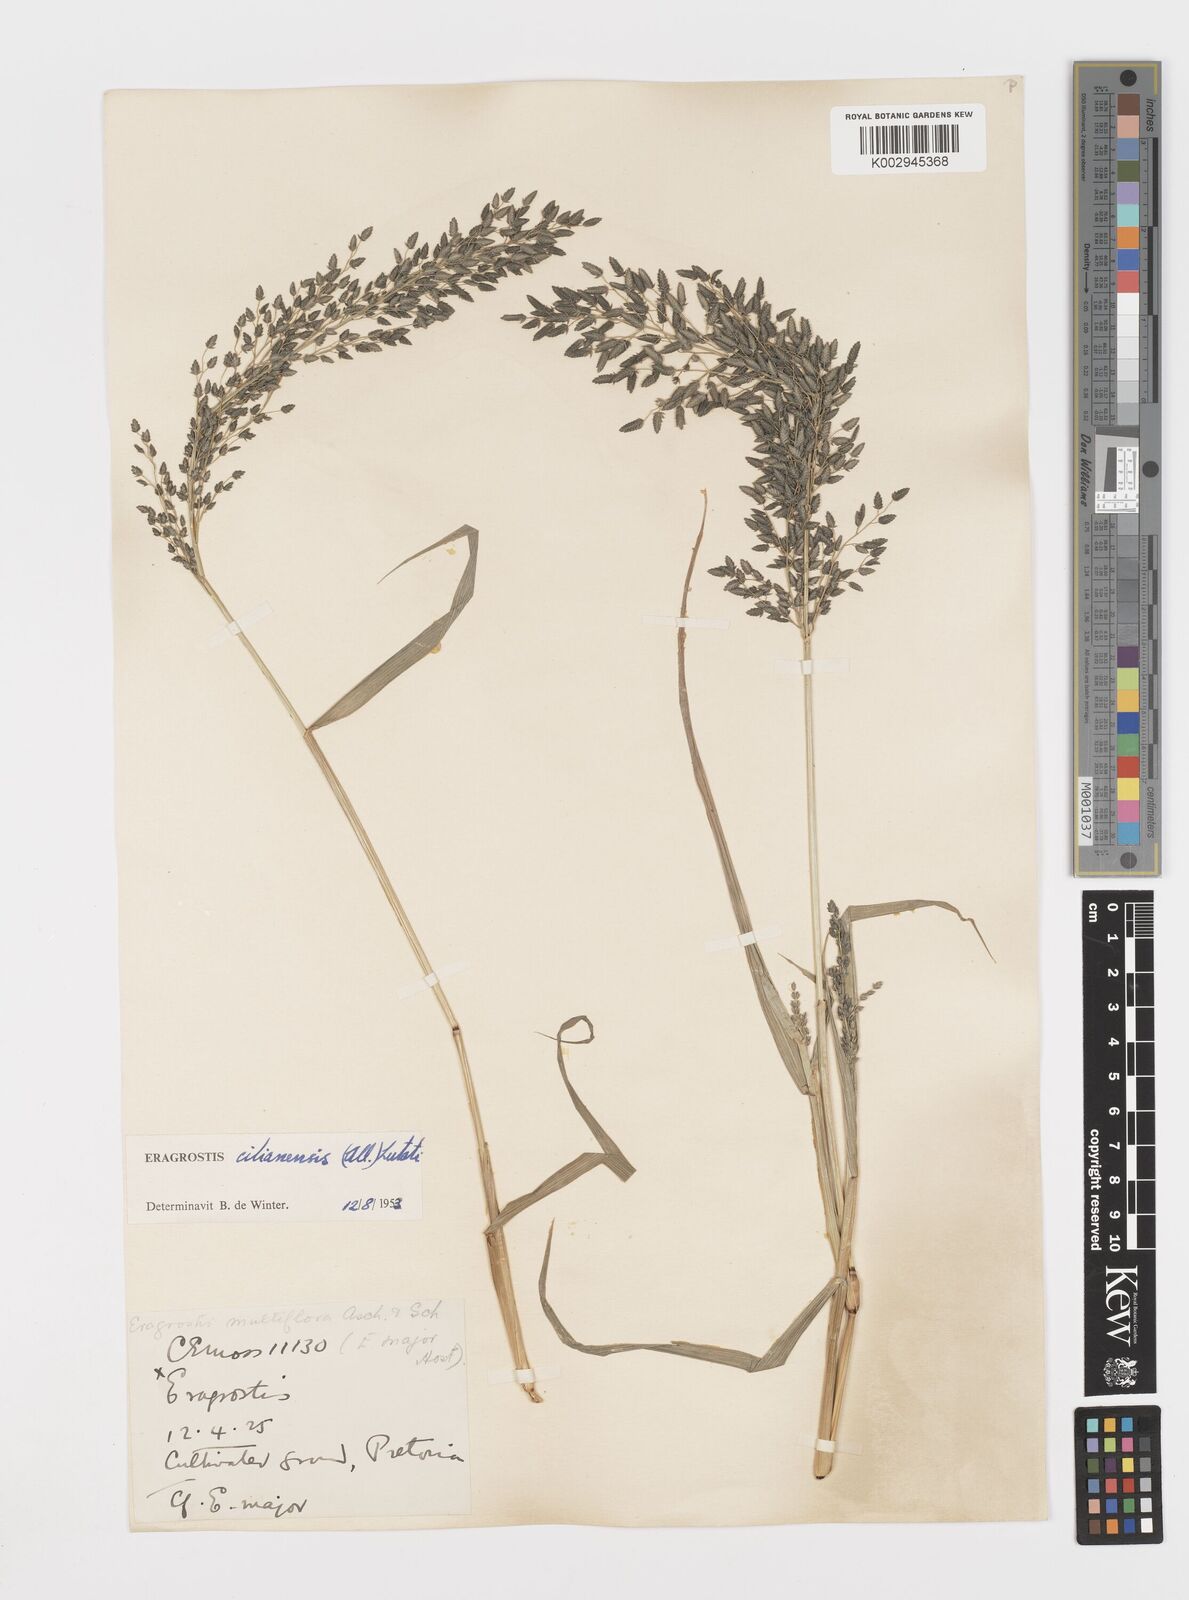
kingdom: Plantae
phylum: Tracheophyta
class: Liliopsida
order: Poales
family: Poaceae
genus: Eragrostis
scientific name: Eragrostis cilianensis
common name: Stinkgrass
